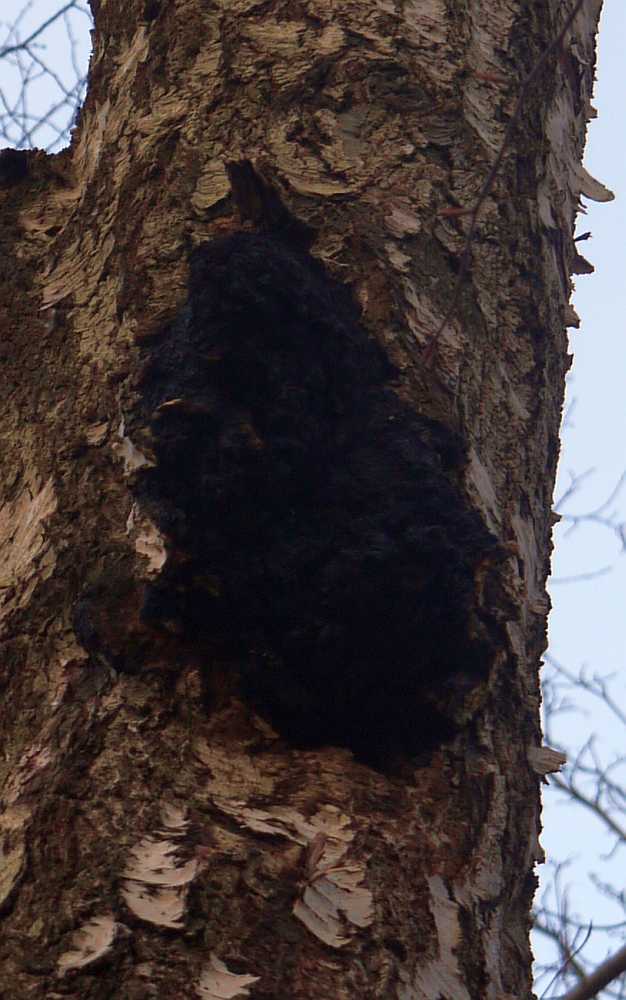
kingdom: Fungi
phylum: Basidiomycota
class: Agaricomycetes
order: Hymenochaetales
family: Hymenochaetaceae
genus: Inonotus
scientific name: Inonotus obliquus
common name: birke-spejlporesvamp
